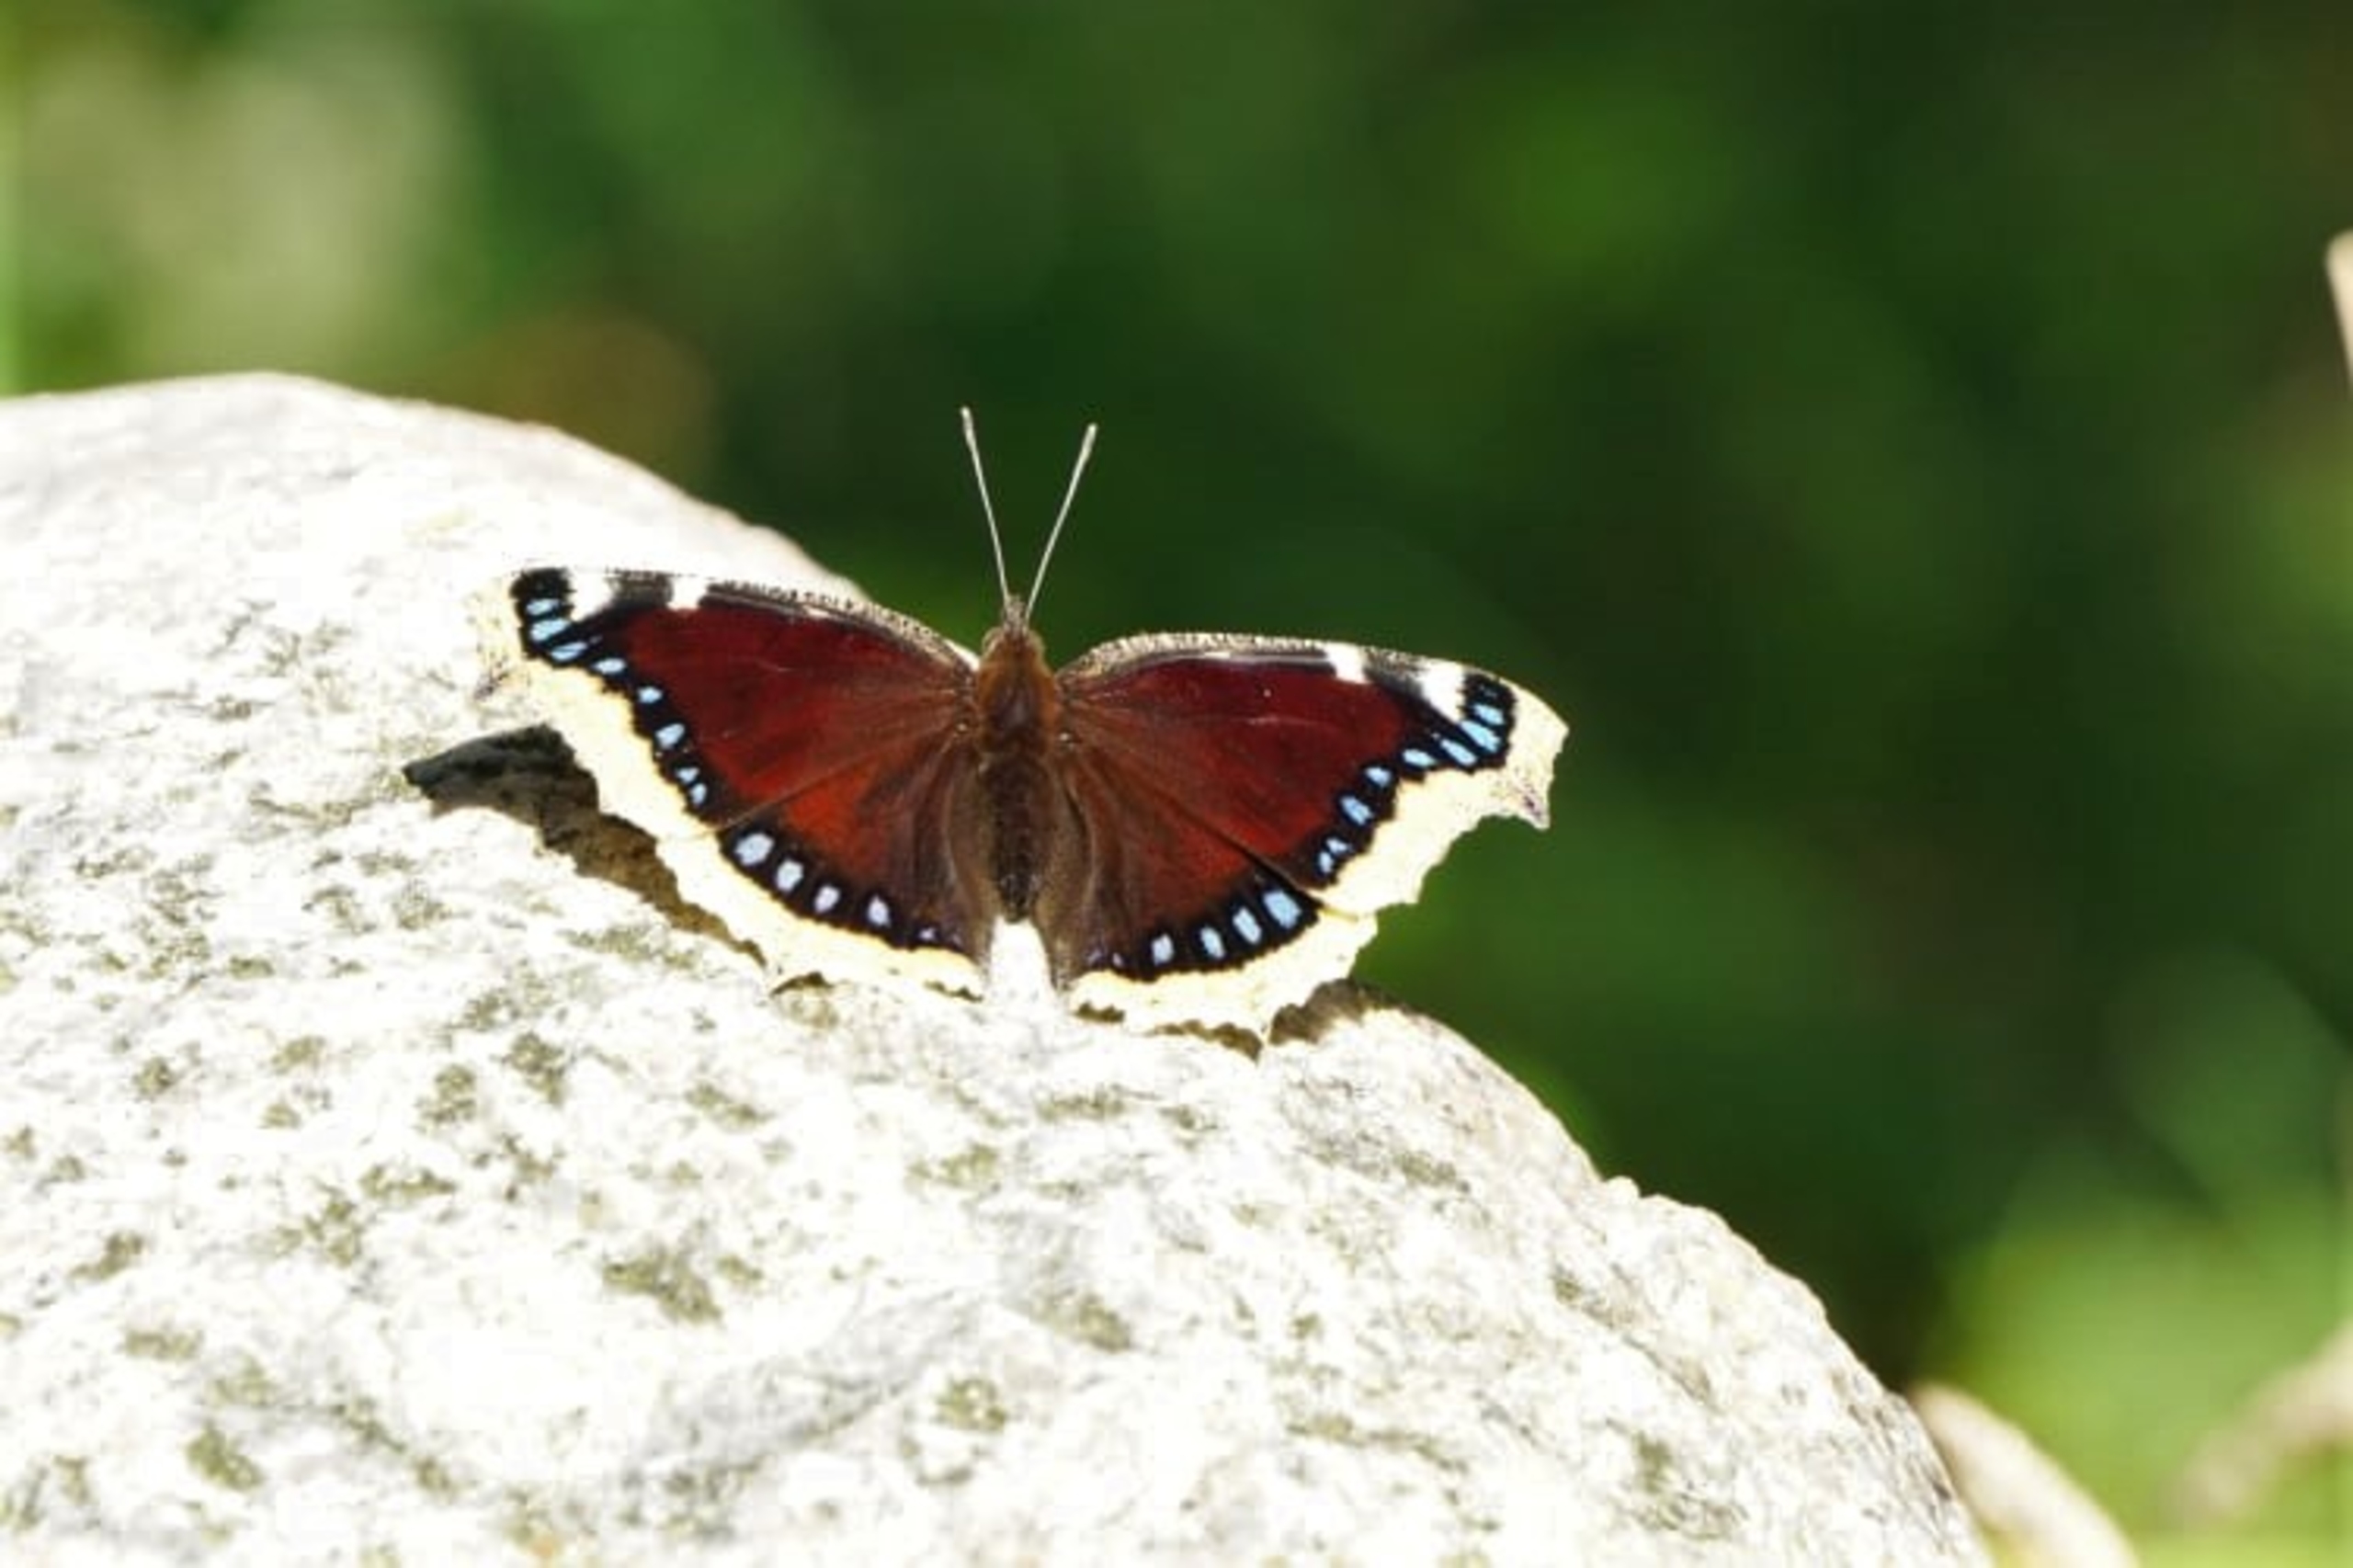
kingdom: Animalia
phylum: Arthropoda
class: Insecta
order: Lepidoptera
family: Nymphalidae
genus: Nymphalis
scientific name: Nymphalis antiopa
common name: Sørgekåbe
